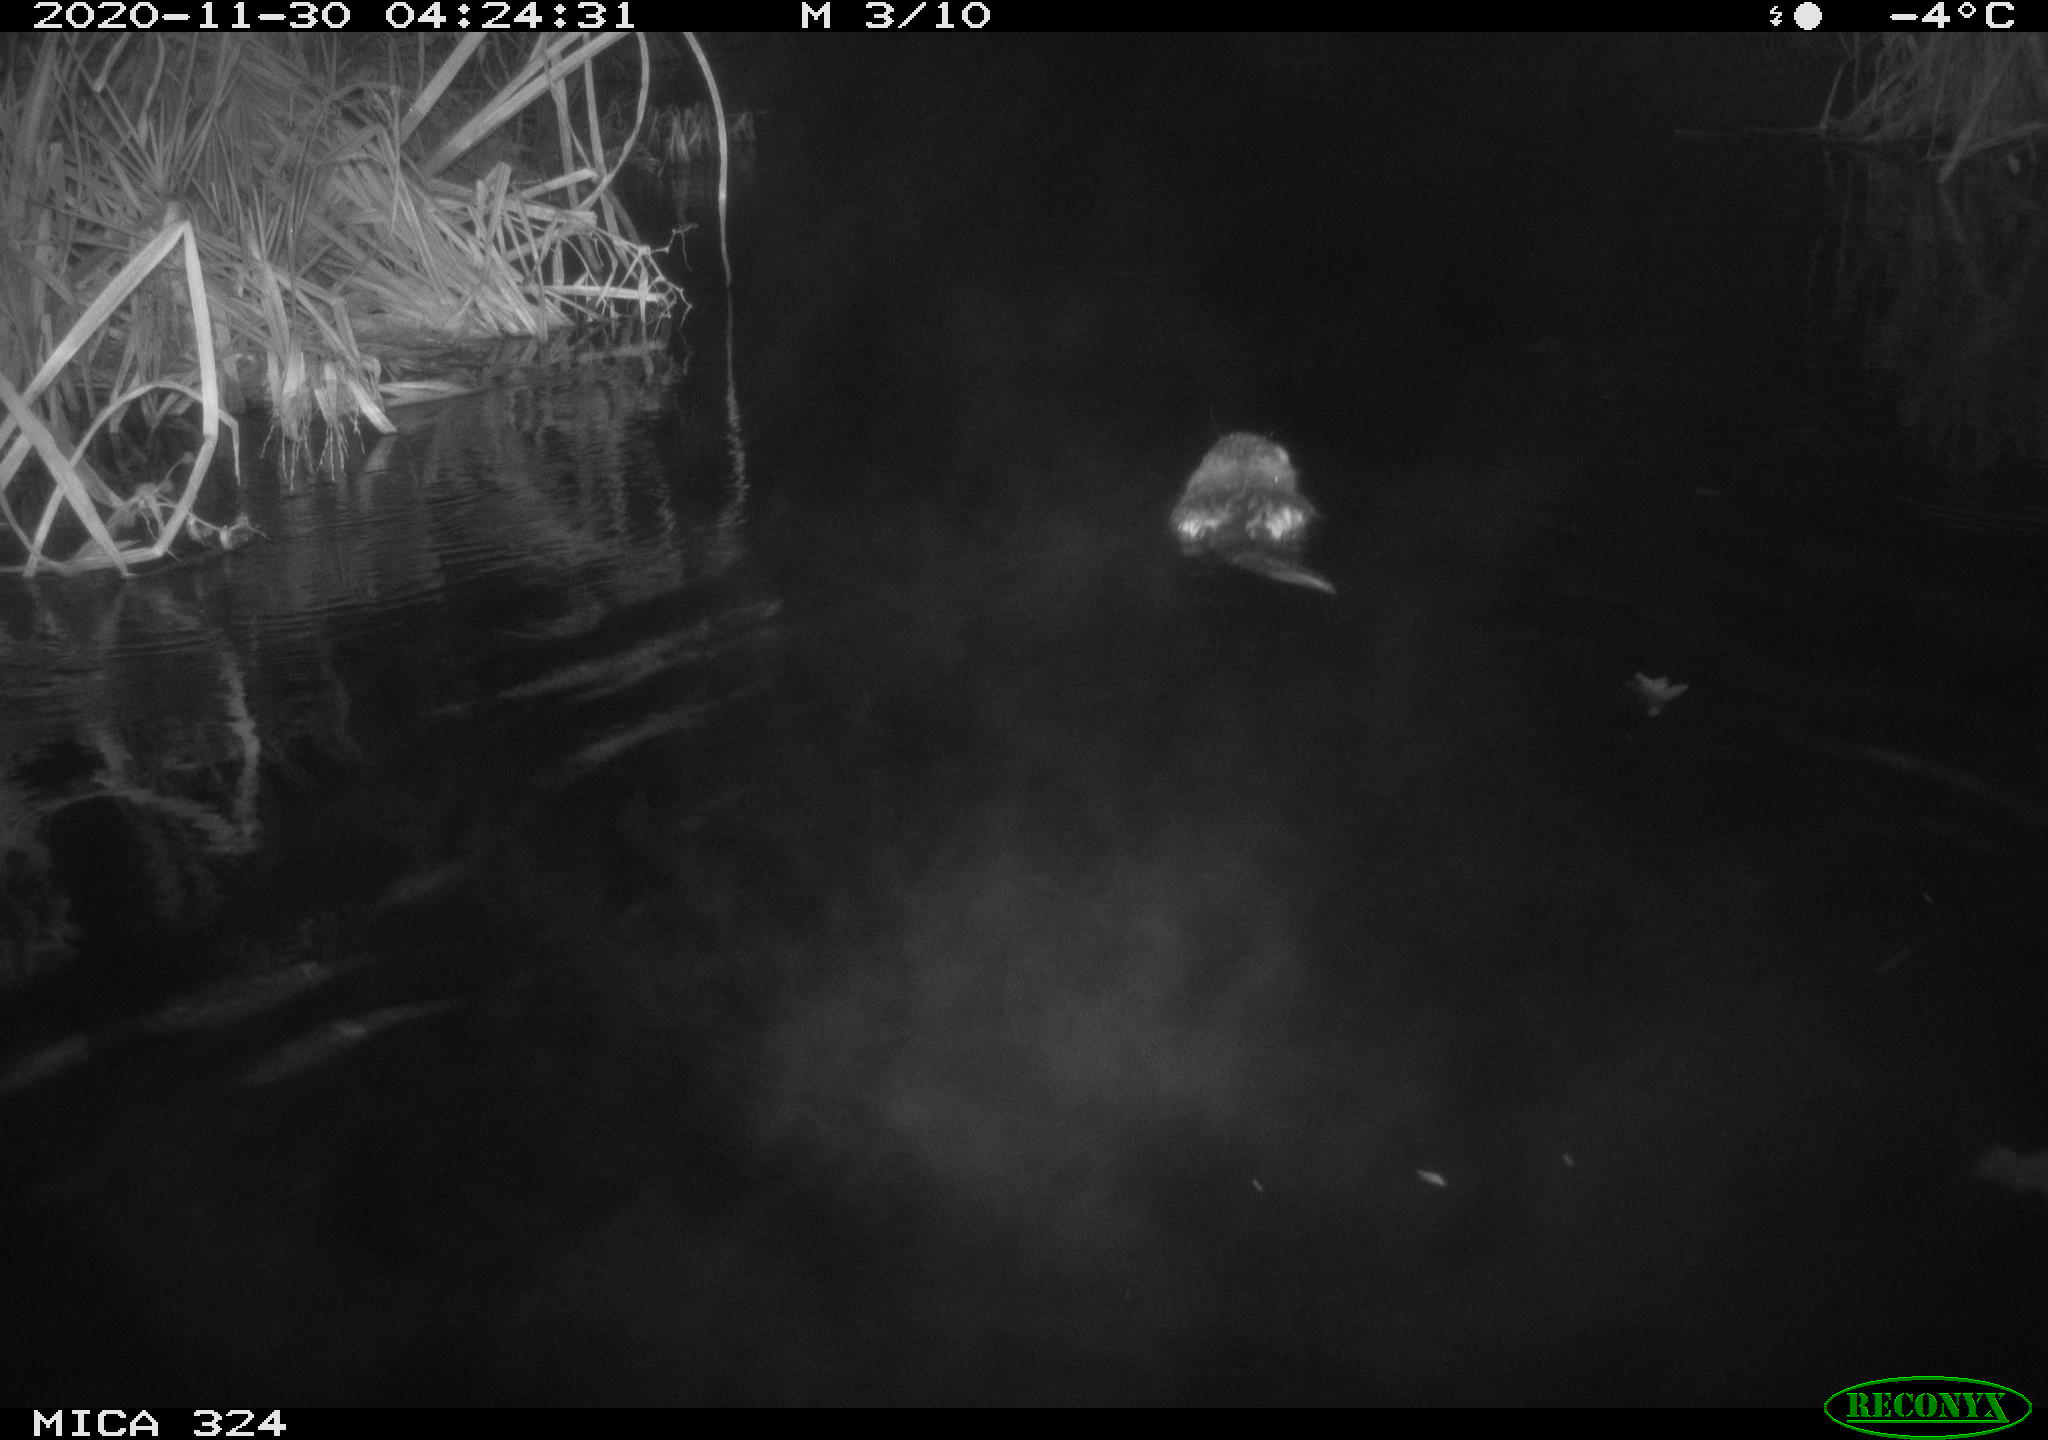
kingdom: Animalia
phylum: Chordata
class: Mammalia
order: Rodentia
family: Castoridae
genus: Castor
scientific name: Castor fiber
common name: Eurasian beaver
